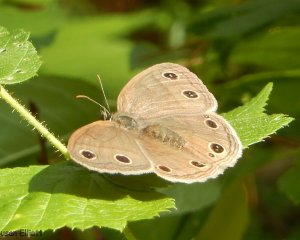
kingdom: Animalia
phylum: Arthropoda
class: Insecta
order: Lepidoptera
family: Nymphalidae
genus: Euptychia
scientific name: Euptychia cymela
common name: Little Wood Satyr
